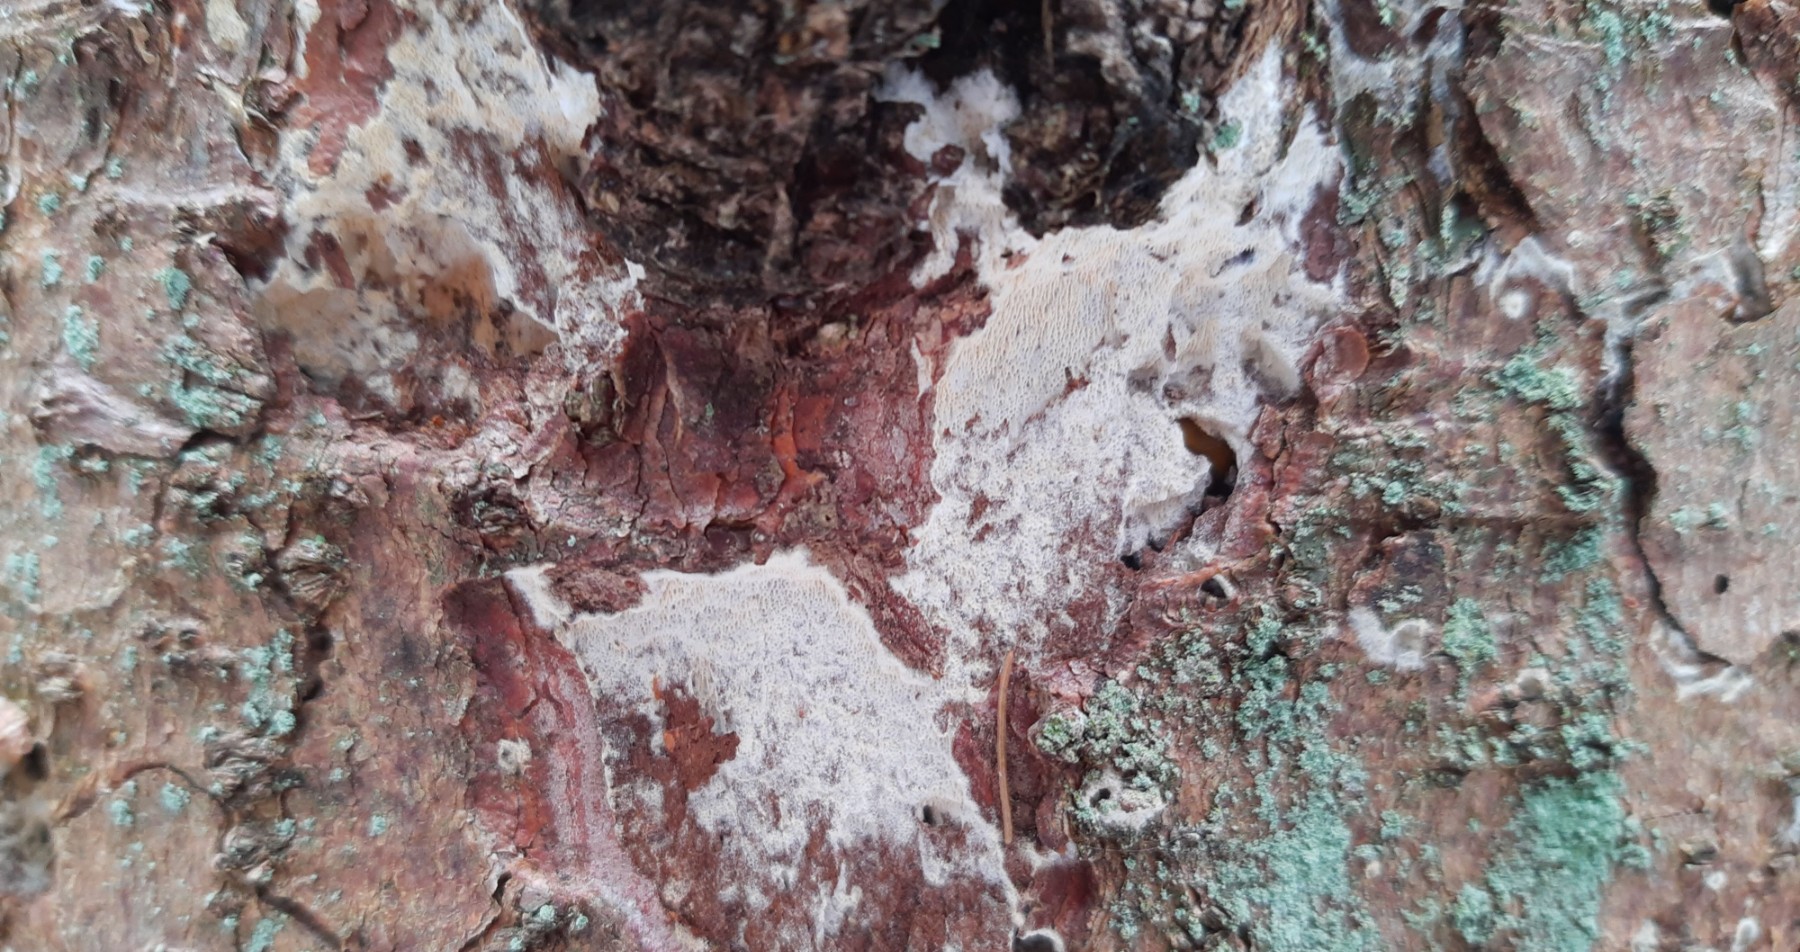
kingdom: Fungi
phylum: Basidiomycota
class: Agaricomycetes
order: Polyporales
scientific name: Polyporales
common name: poresvampordenen
